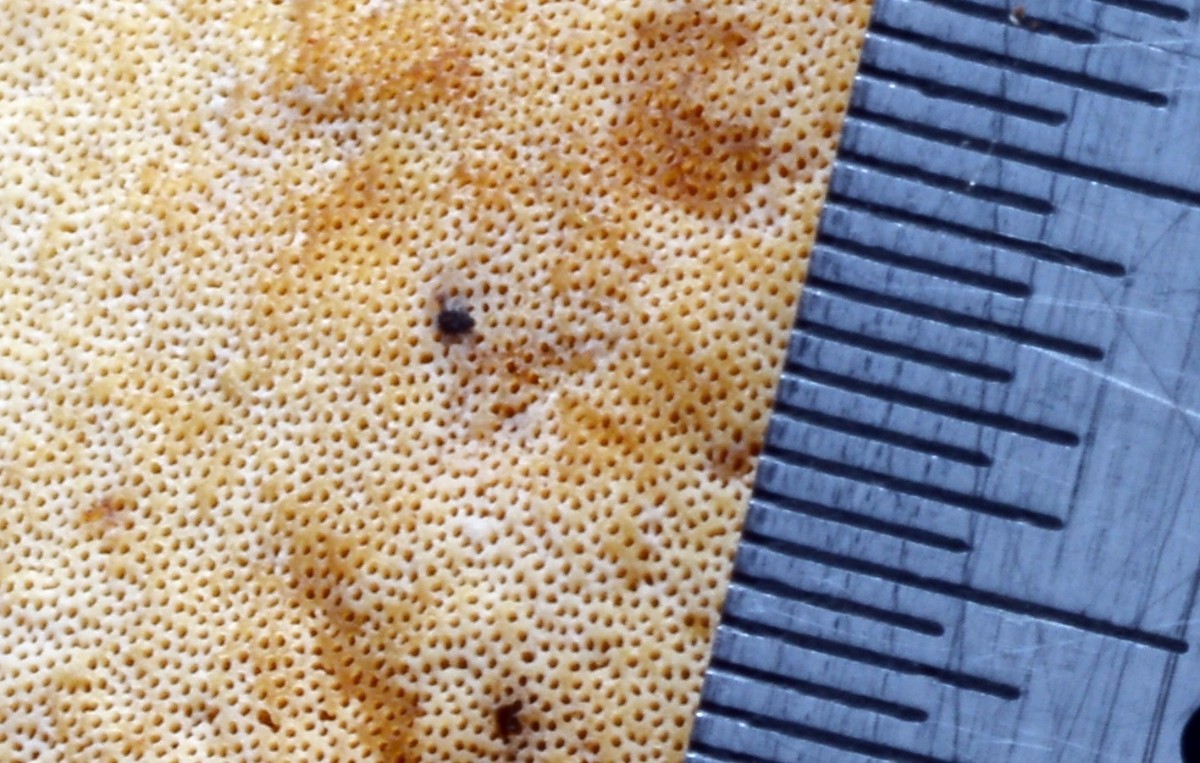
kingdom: Fungi
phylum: Basidiomycota
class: Agaricomycetes
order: Polyporales
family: Polyporaceae
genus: Cerioporus
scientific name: Cerioporus varius
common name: foranderlig stilkporesvamp
